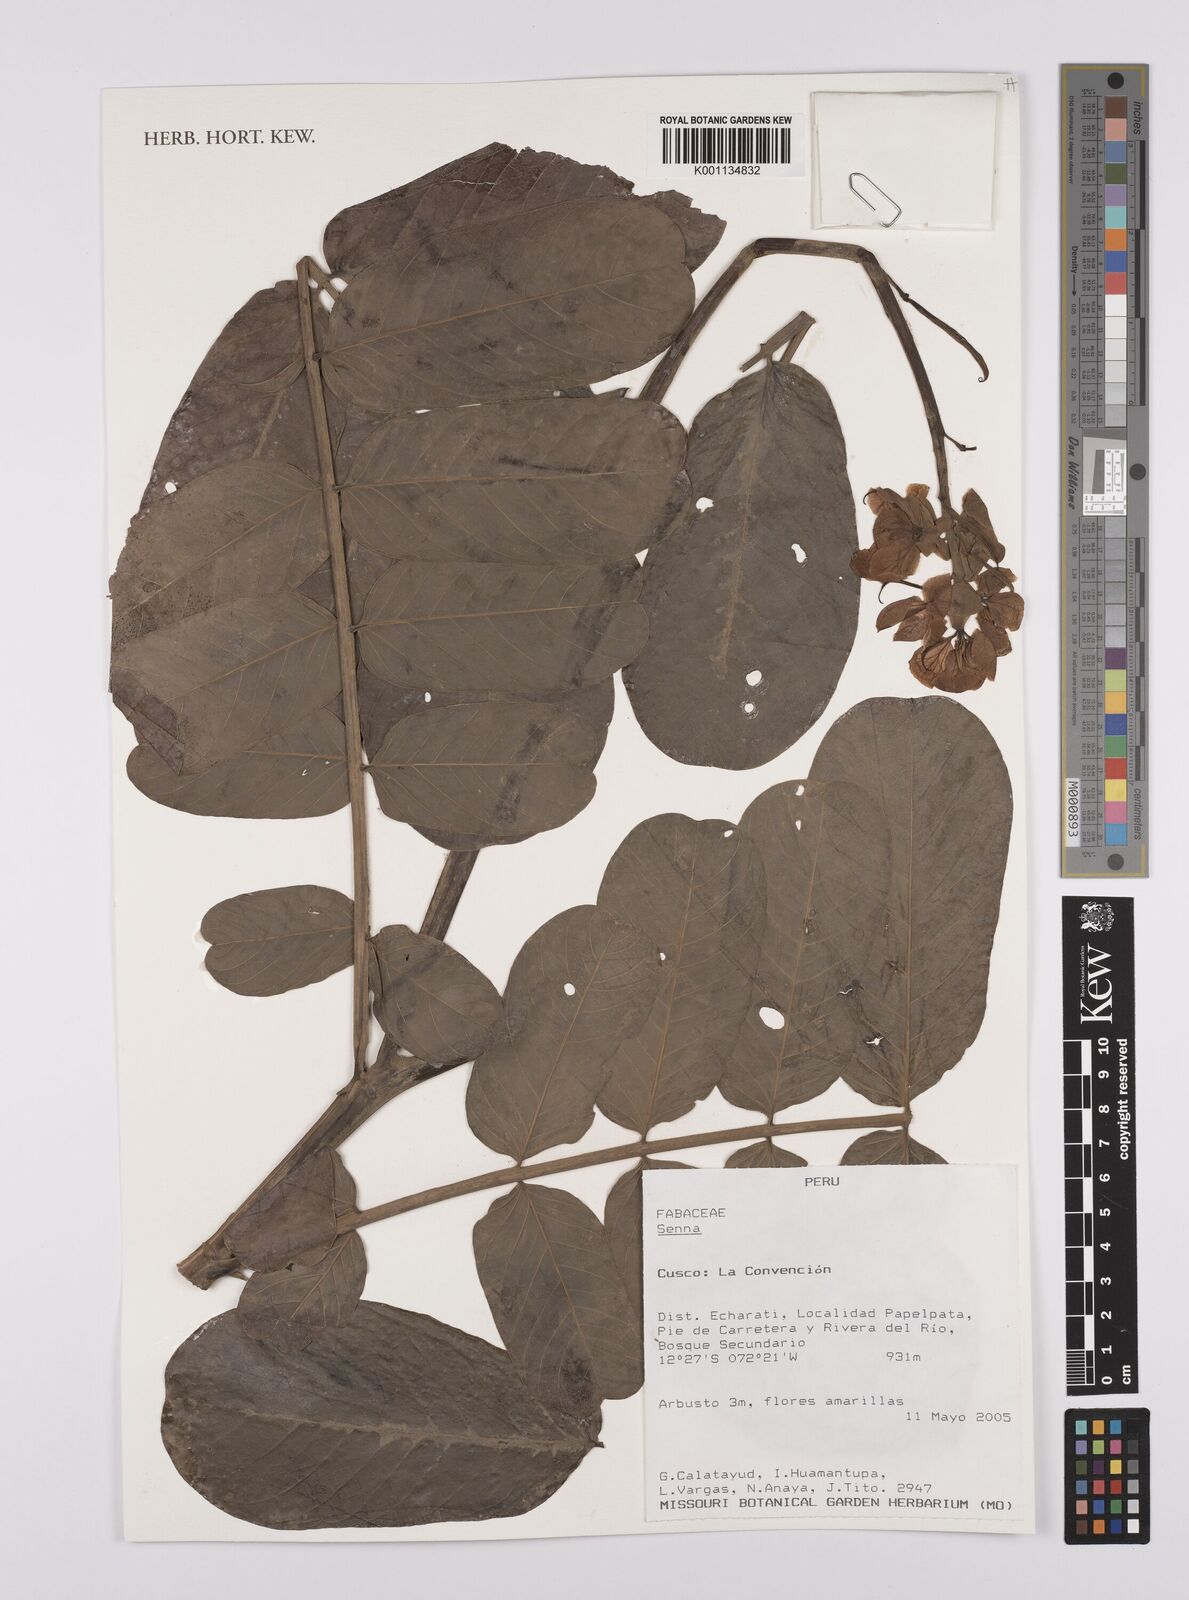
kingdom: Plantae
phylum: Tracheophyta
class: Magnoliopsida
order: Fabales
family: Fabaceae
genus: Senna
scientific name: Senna
